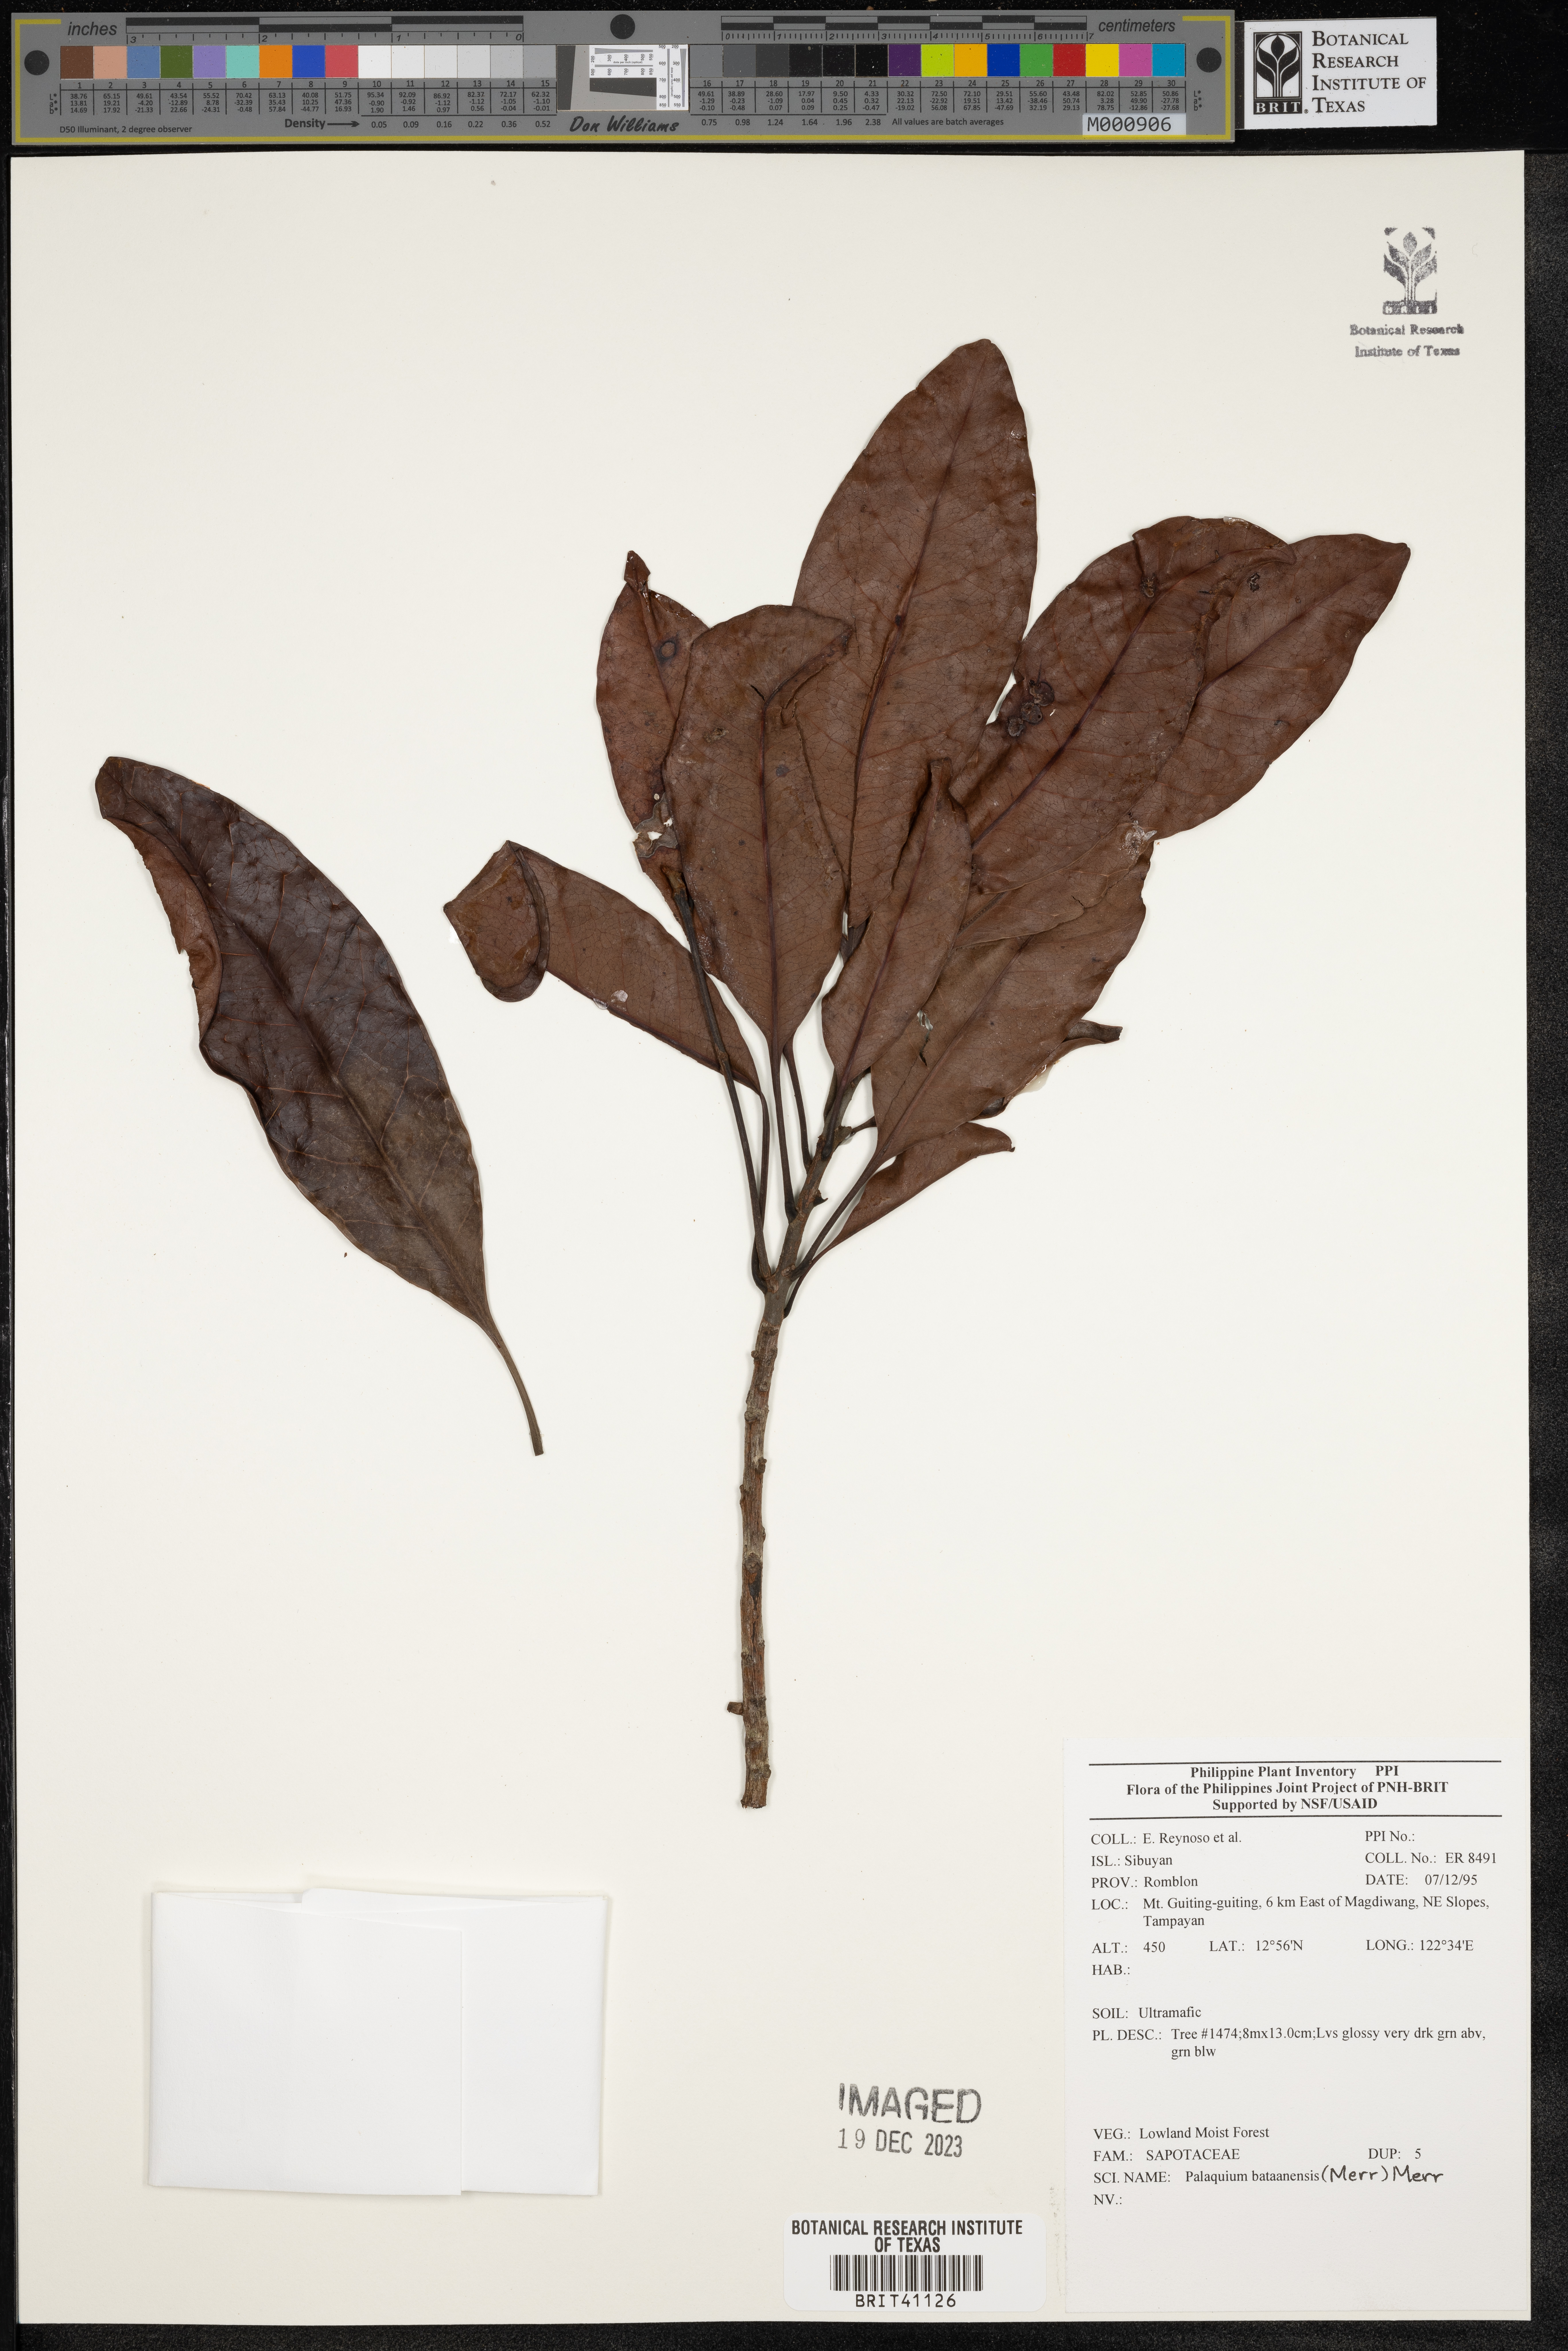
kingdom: Plantae
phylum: Tracheophyta
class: Magnoliopsida
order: Ericales
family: Sapotaceae
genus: Palaquium
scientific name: Palaquium bataanense
